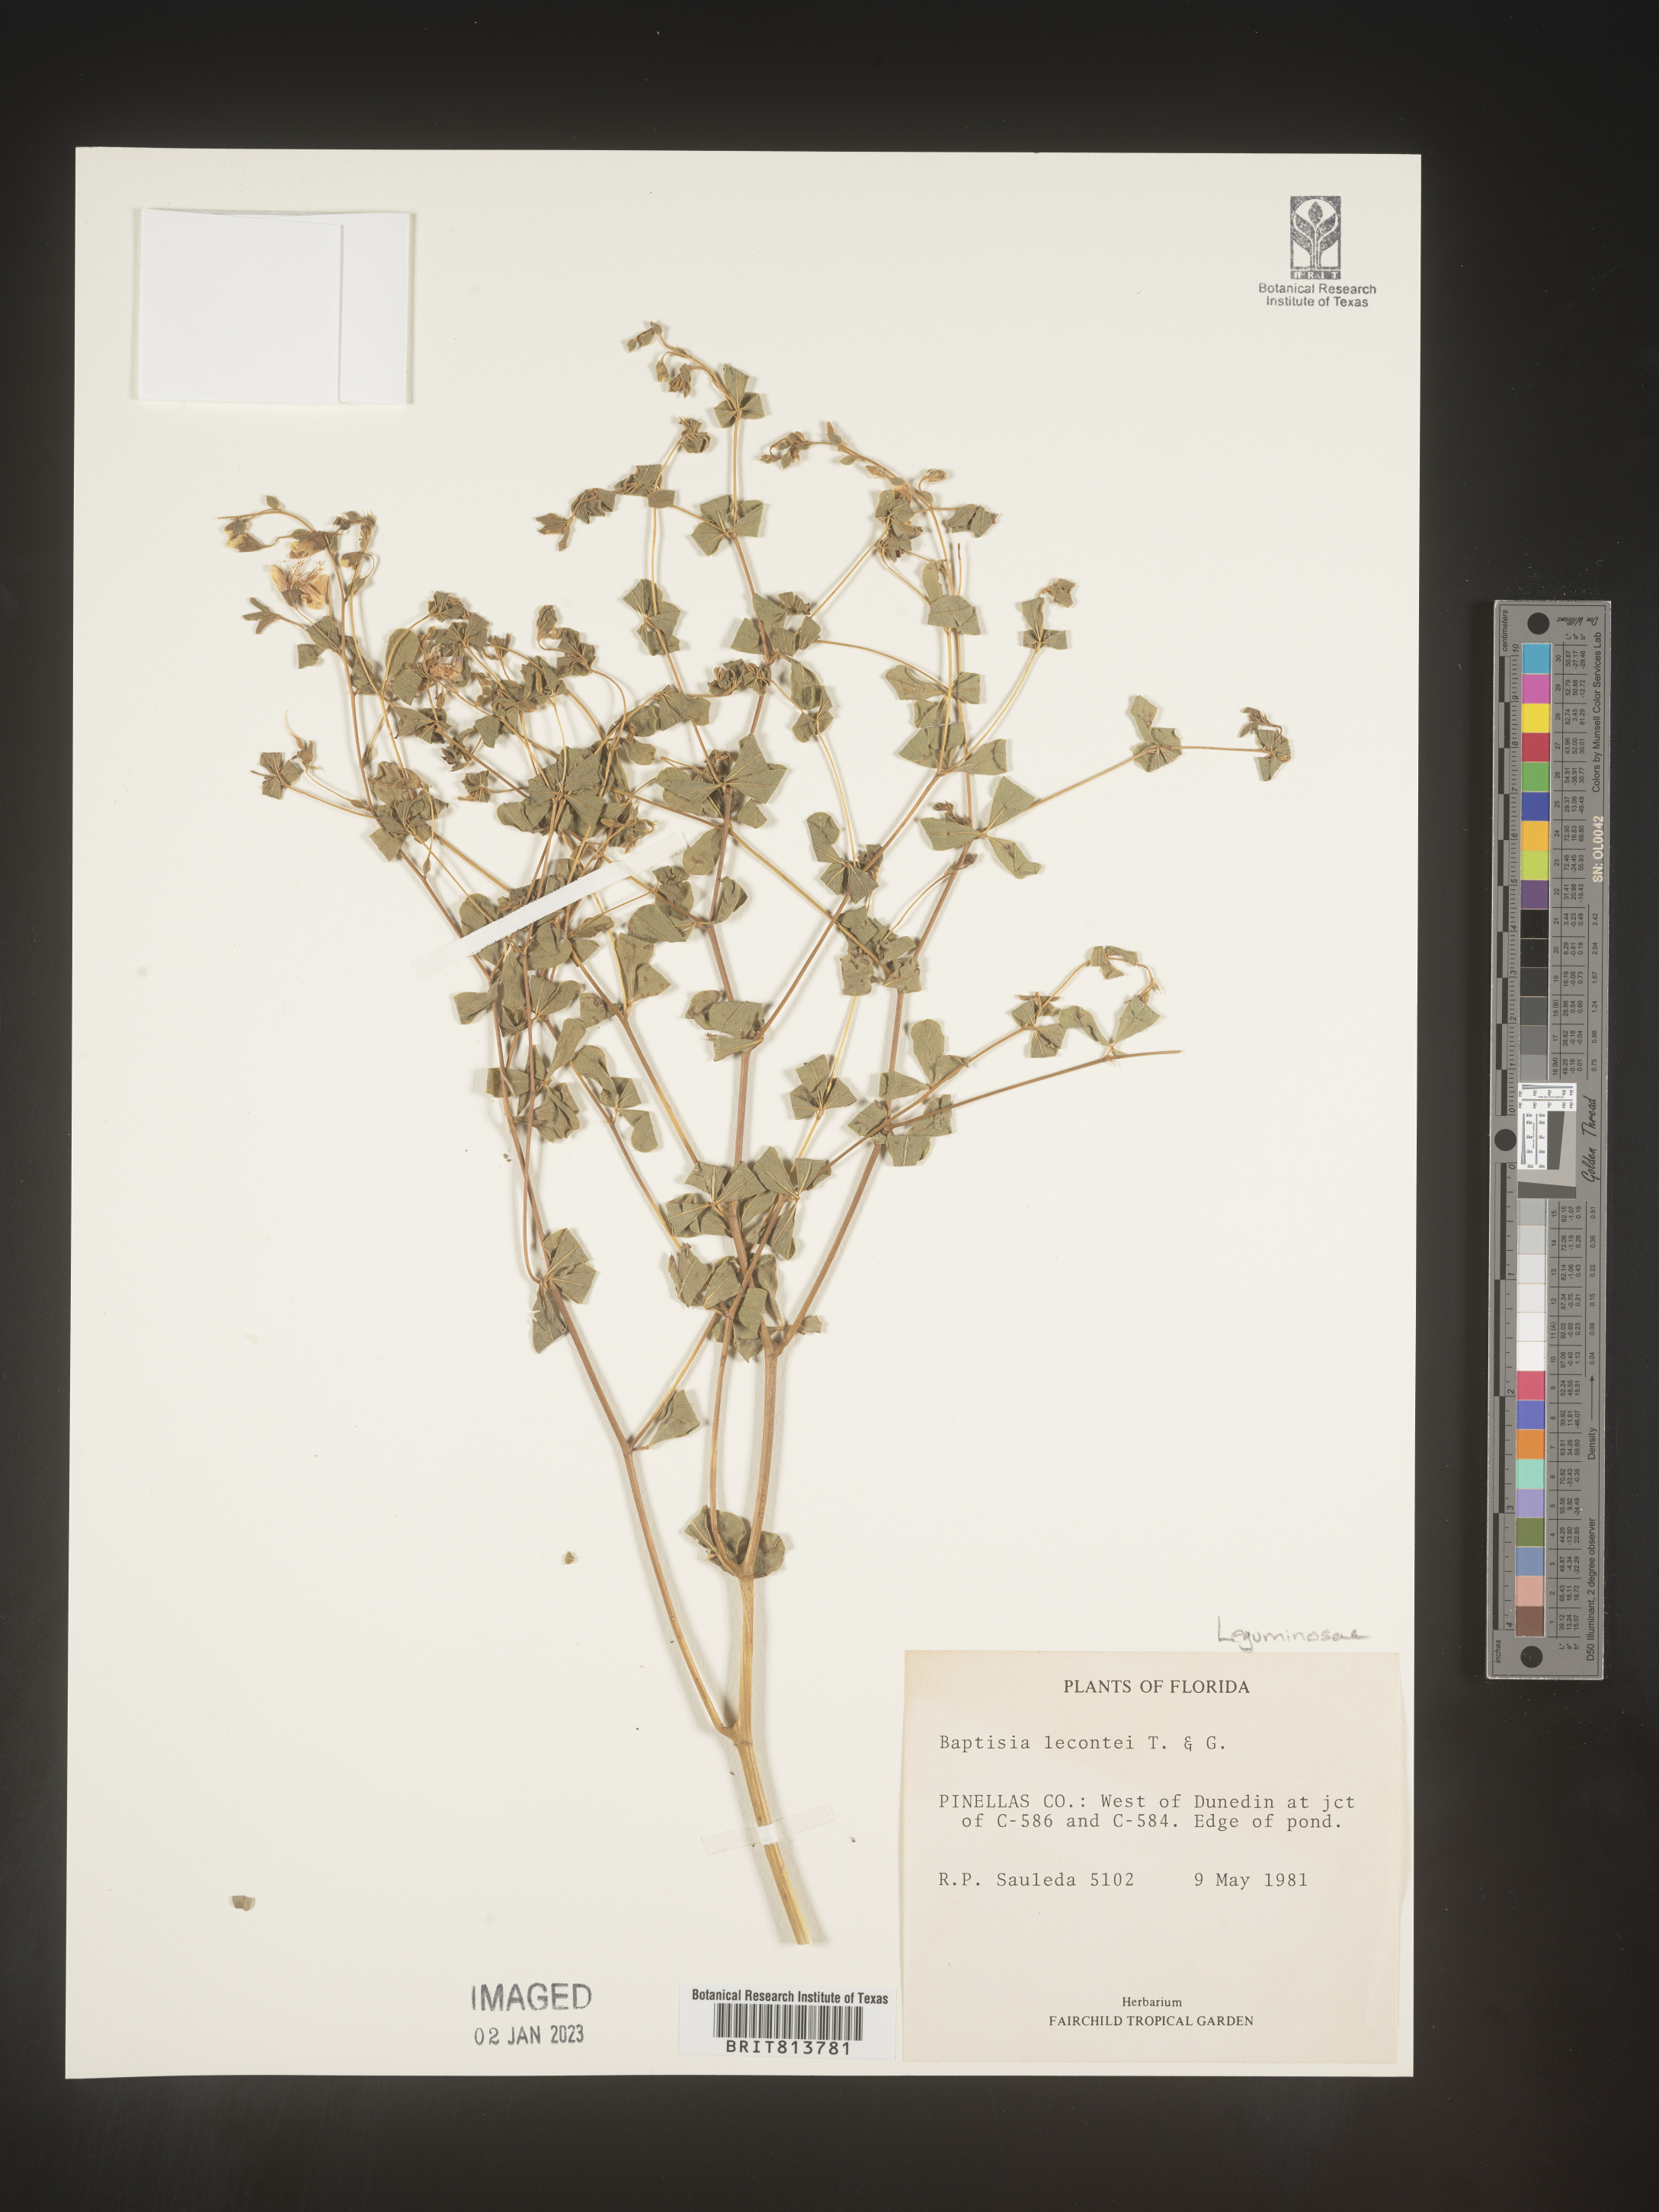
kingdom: Plantae
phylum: Tracheophyta
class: Magnoliopsida
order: Fabales
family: Fabaceae
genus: Baptisia
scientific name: Baptisia lecontei
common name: Pineland wild indigo
